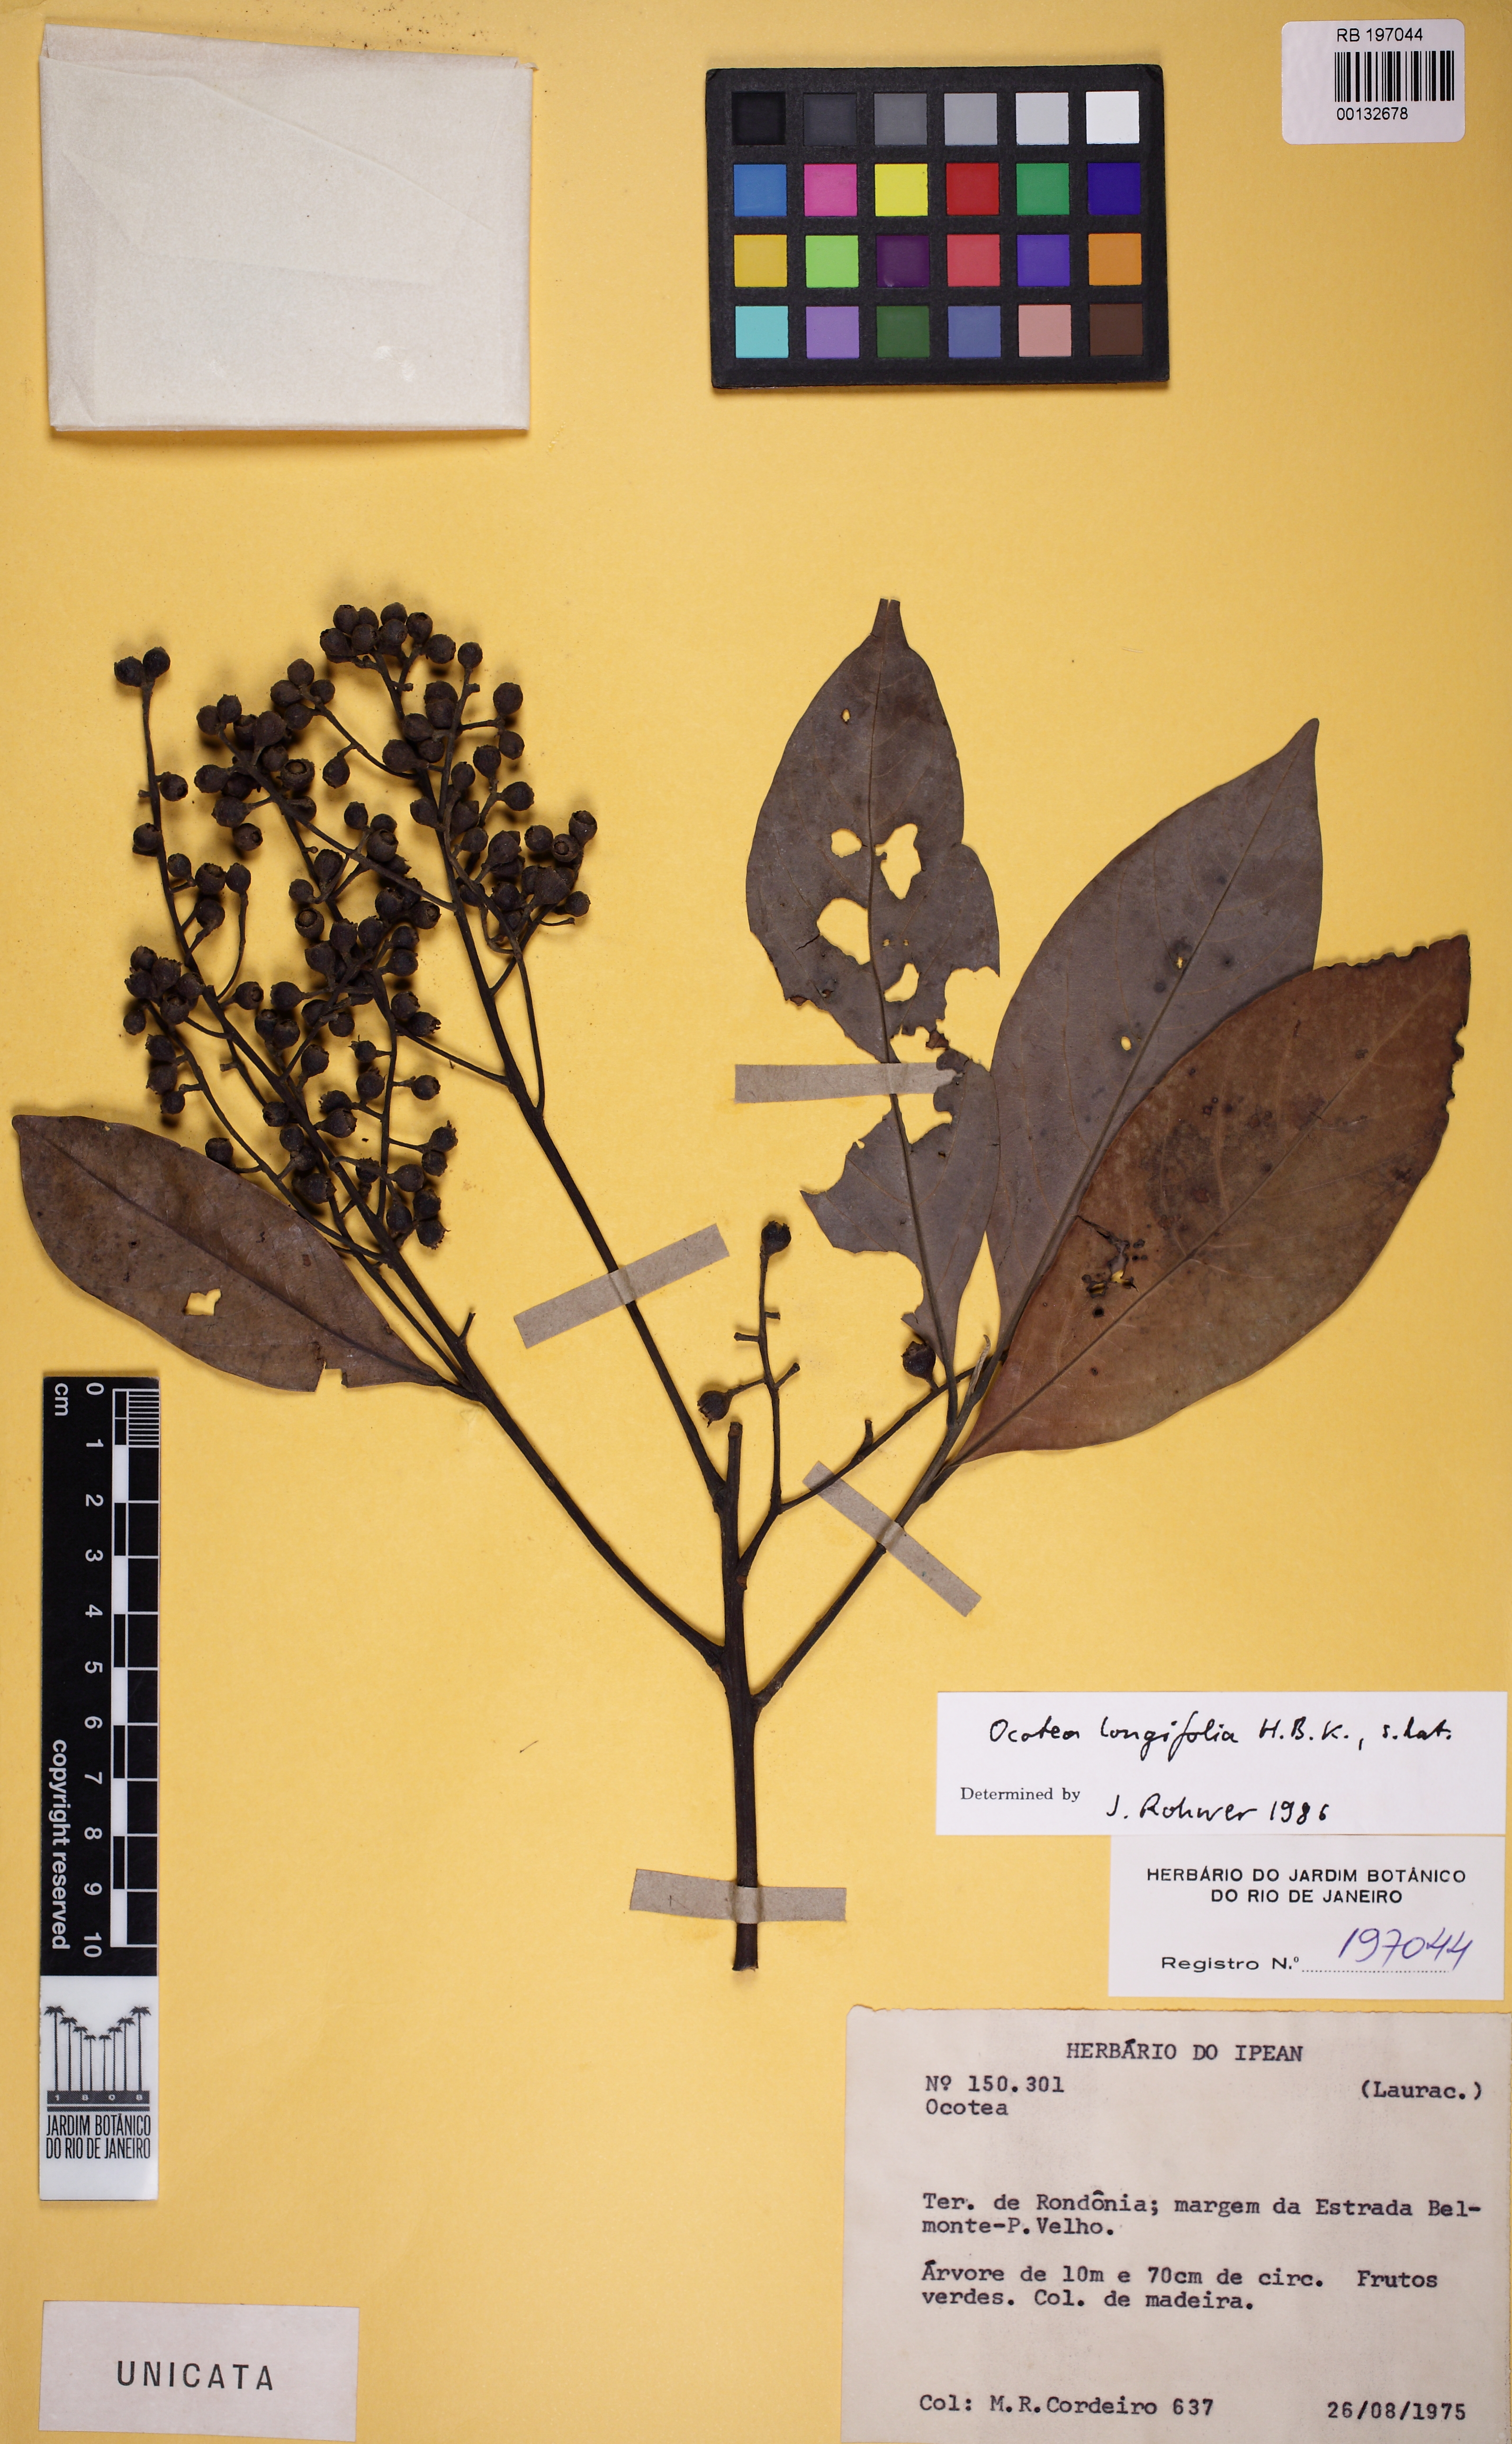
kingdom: Plantae
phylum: Tracheophyta
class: Magnoliopsida
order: Laurales
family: Lauraceae
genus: Mespilodaphne
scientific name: Mespilodaphne opifera
